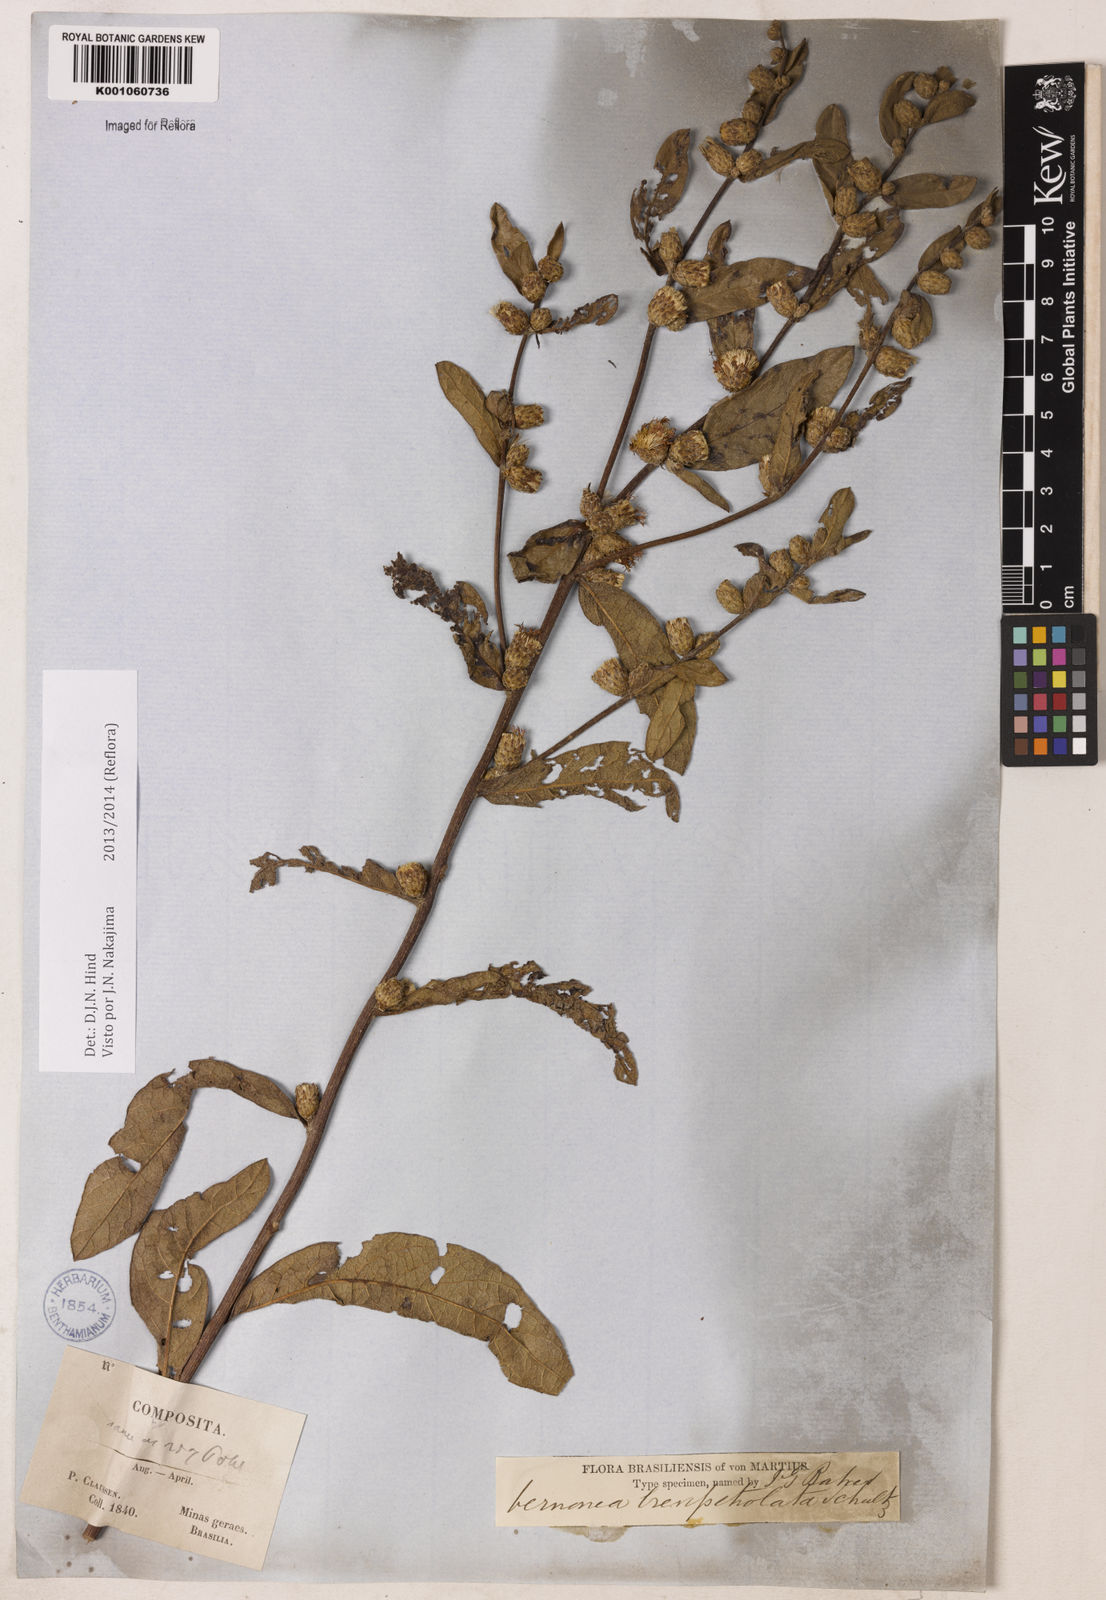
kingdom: Plantae
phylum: Tracheophyta
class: Magnoliopsida
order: Asterales
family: Asteraceae
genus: Lessingianthus
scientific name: Lessingianthus brevipetiolatus
